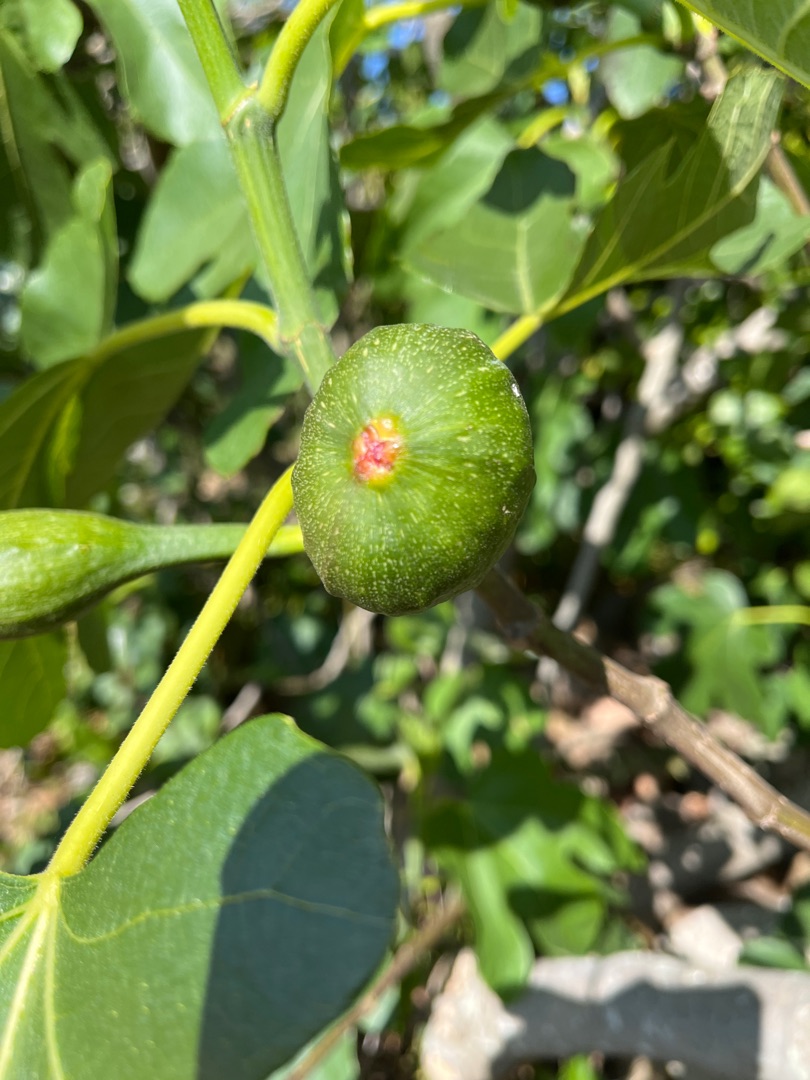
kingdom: Plantae
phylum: Tracheophyta
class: Magnoliopsida
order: Rosales
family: Moraceae
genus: Ficus
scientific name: Ficus carica
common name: Figen
